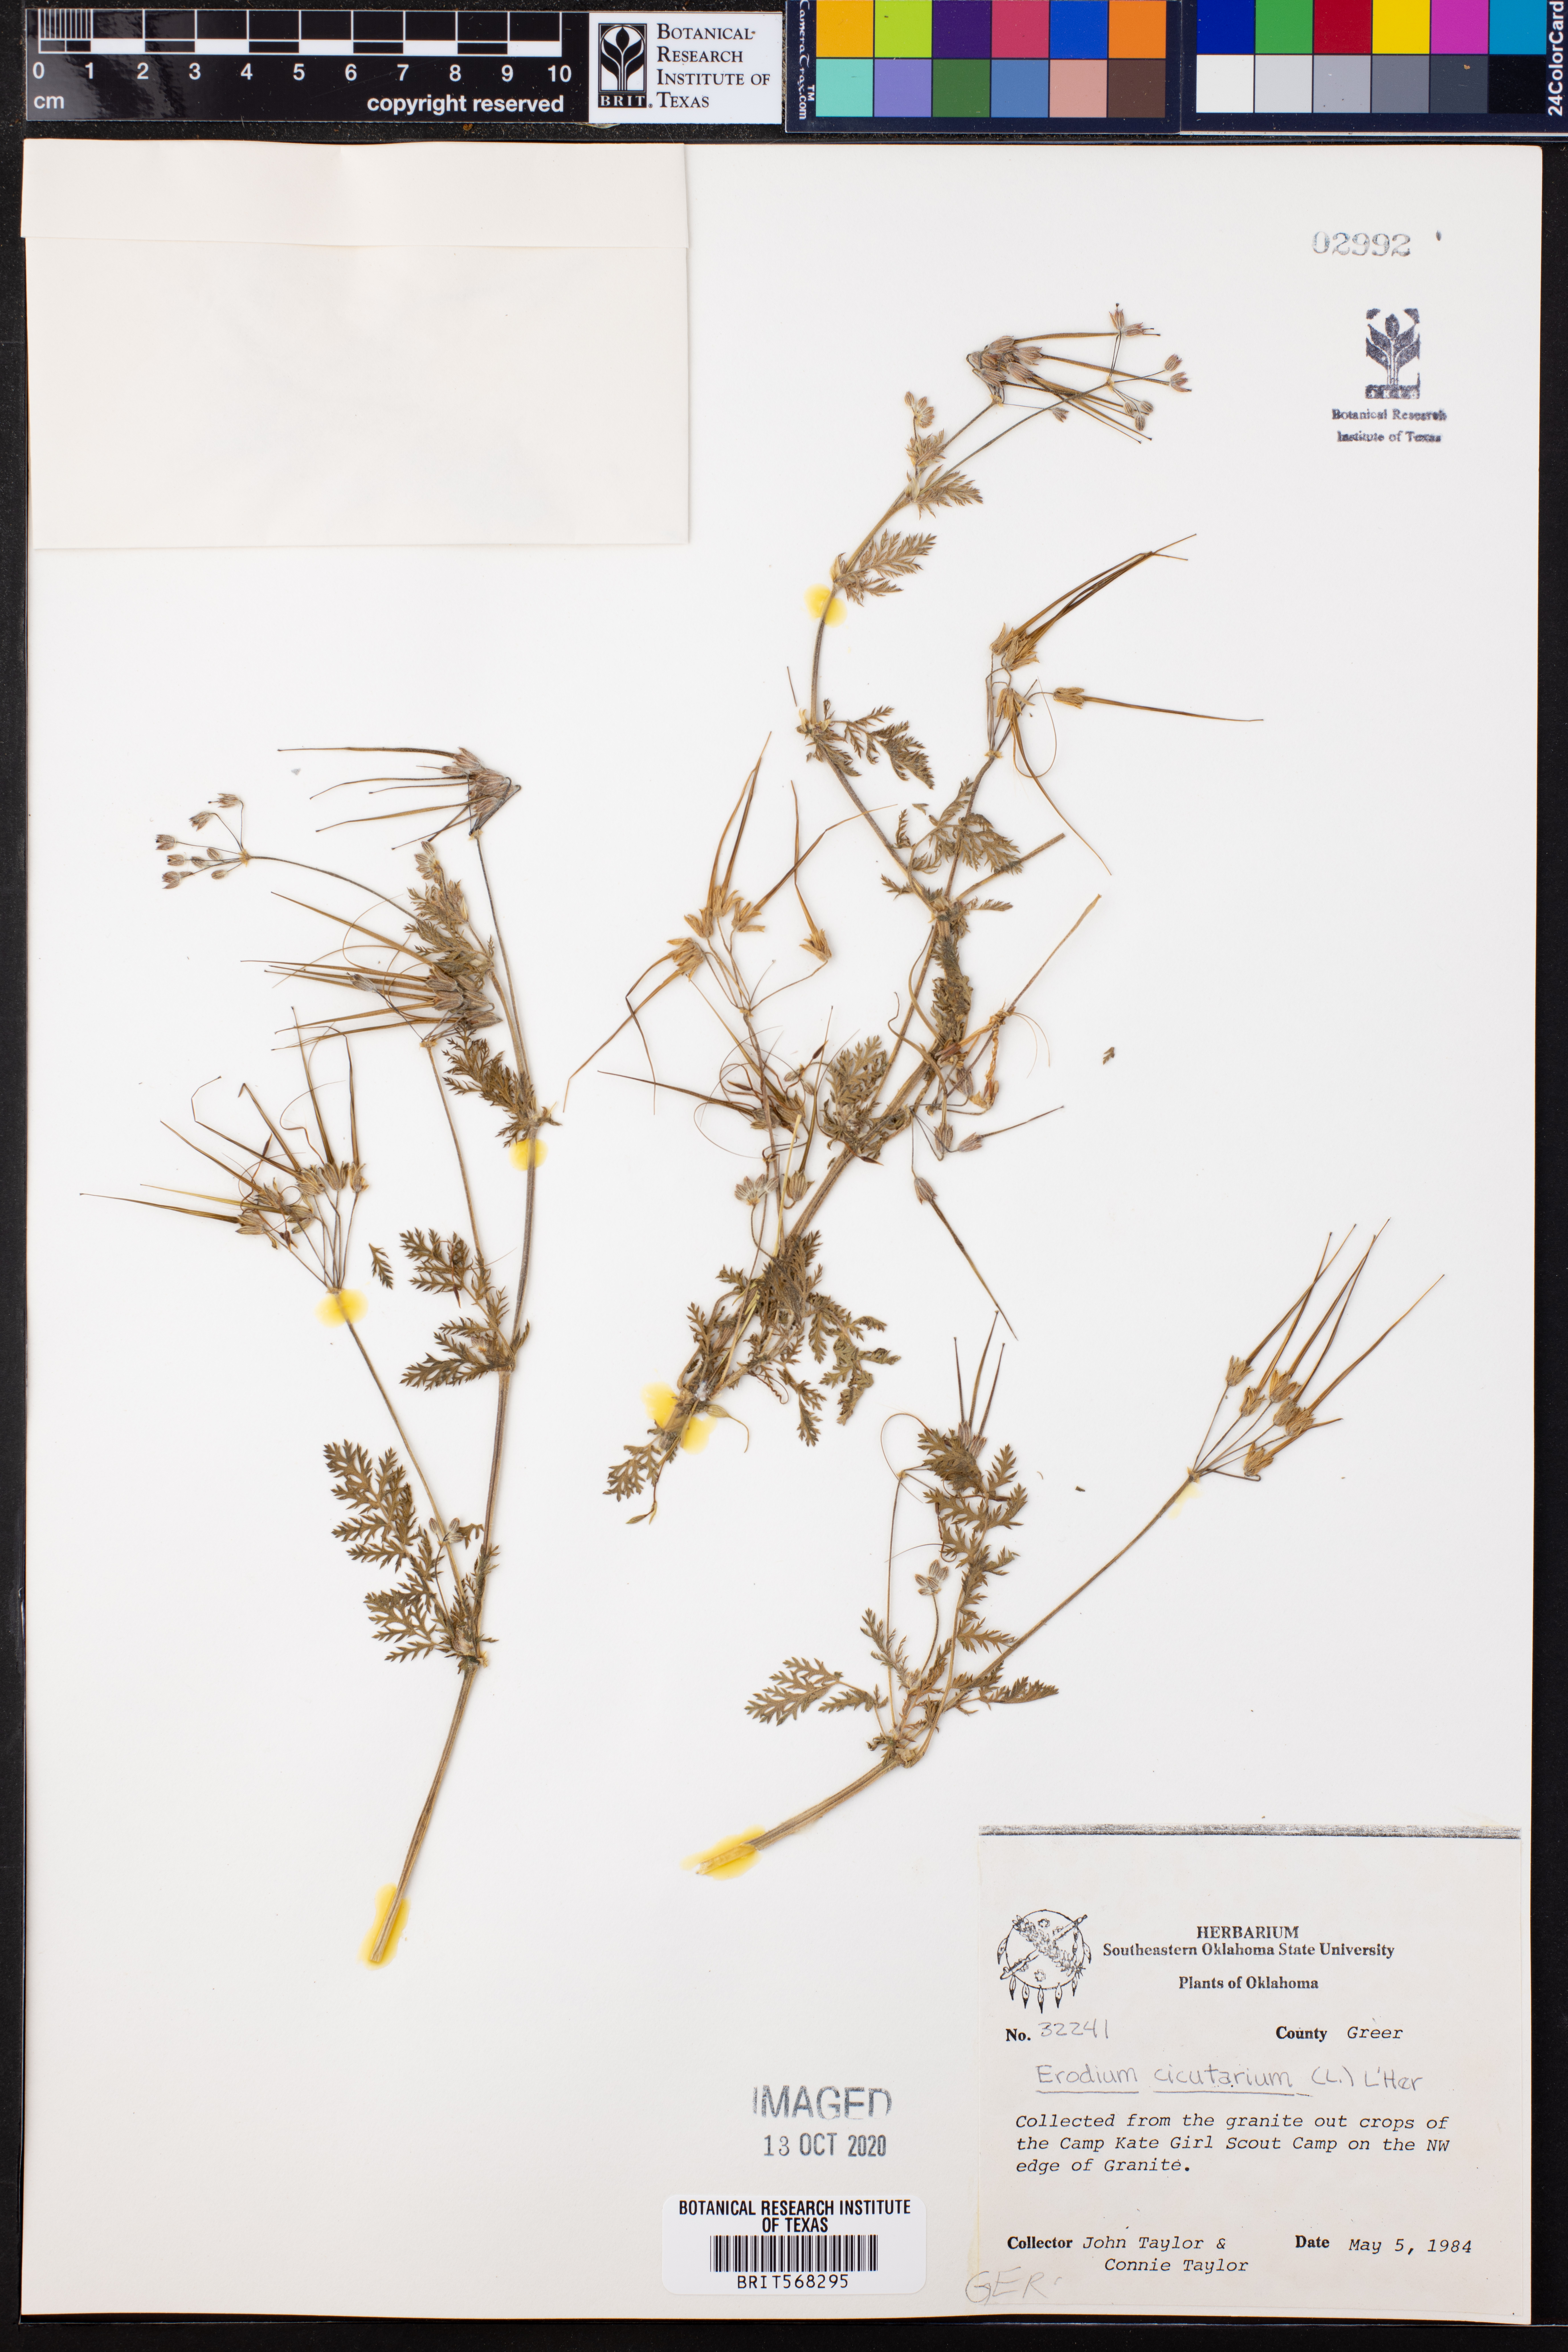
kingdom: Plantae
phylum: Tracheophyta
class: Magnoliopsida
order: Geraniales
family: Geraniaceae
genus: Erodium
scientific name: Erodium cicutarium
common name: Common stork's-bill
